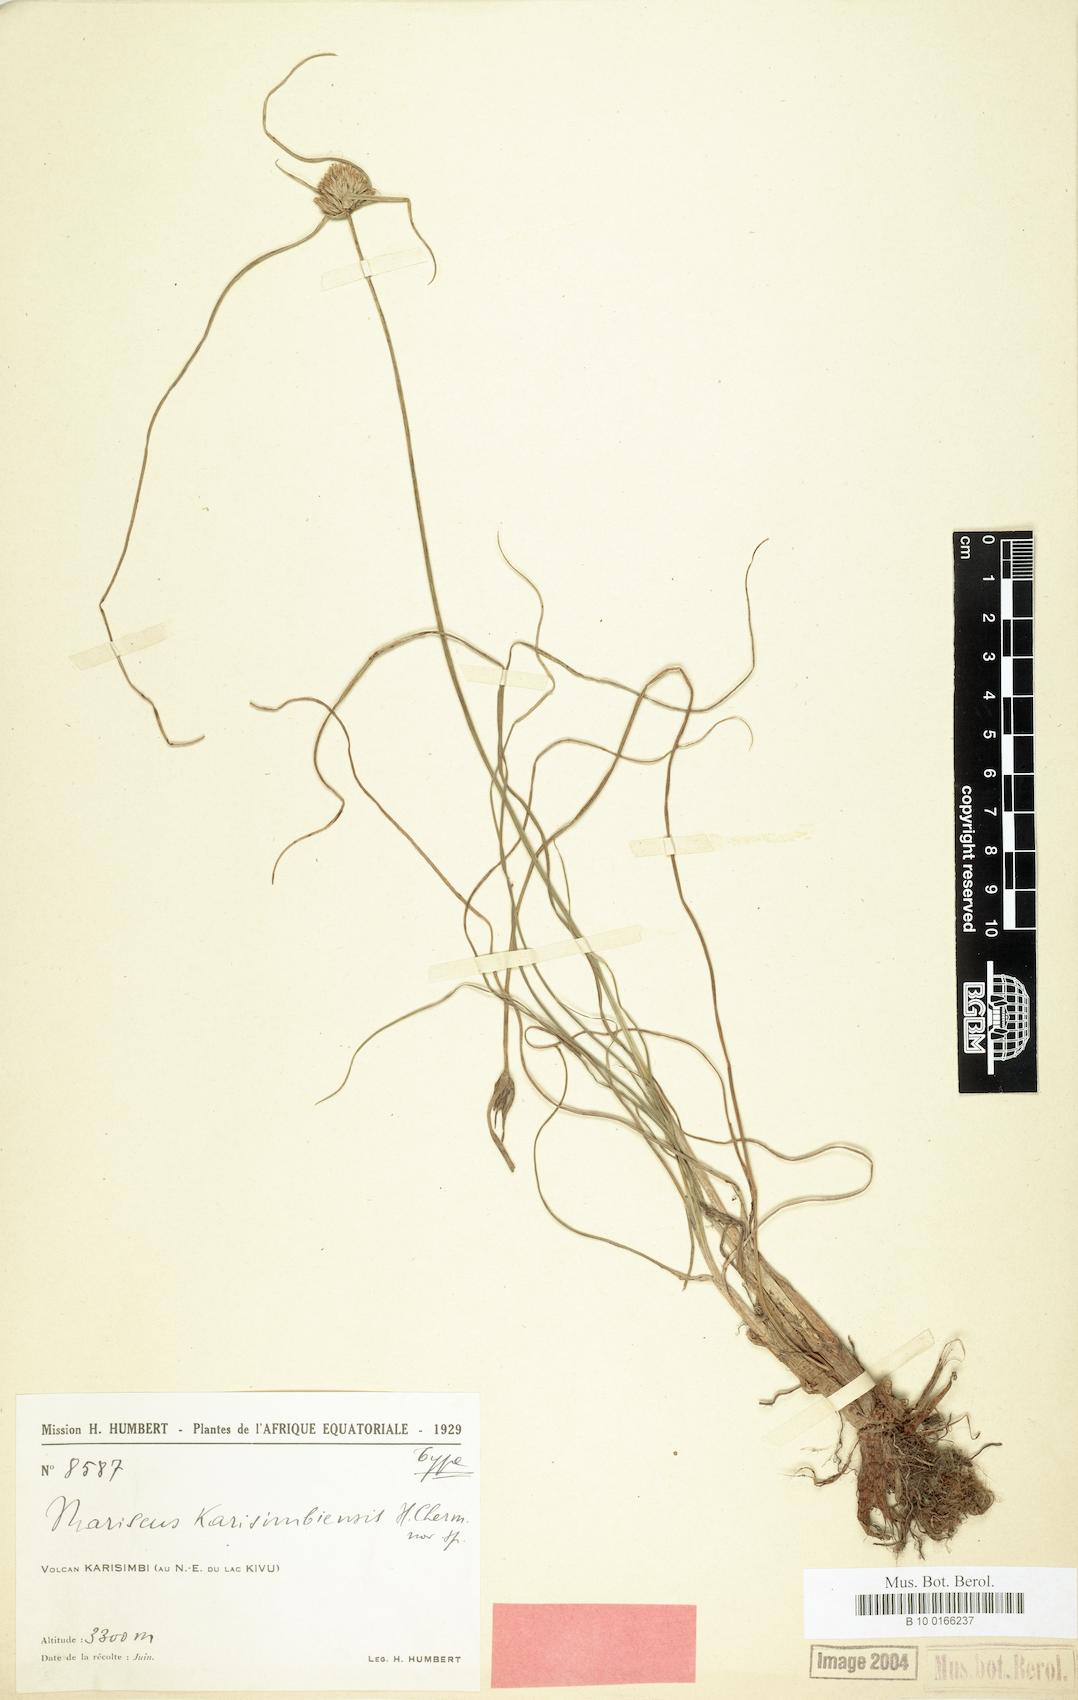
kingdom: Plantae
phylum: Tracheophyta
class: Liliopsida
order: Poales
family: Cyperaceae
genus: Cyperus
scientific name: Cyperus karisimbiensis
